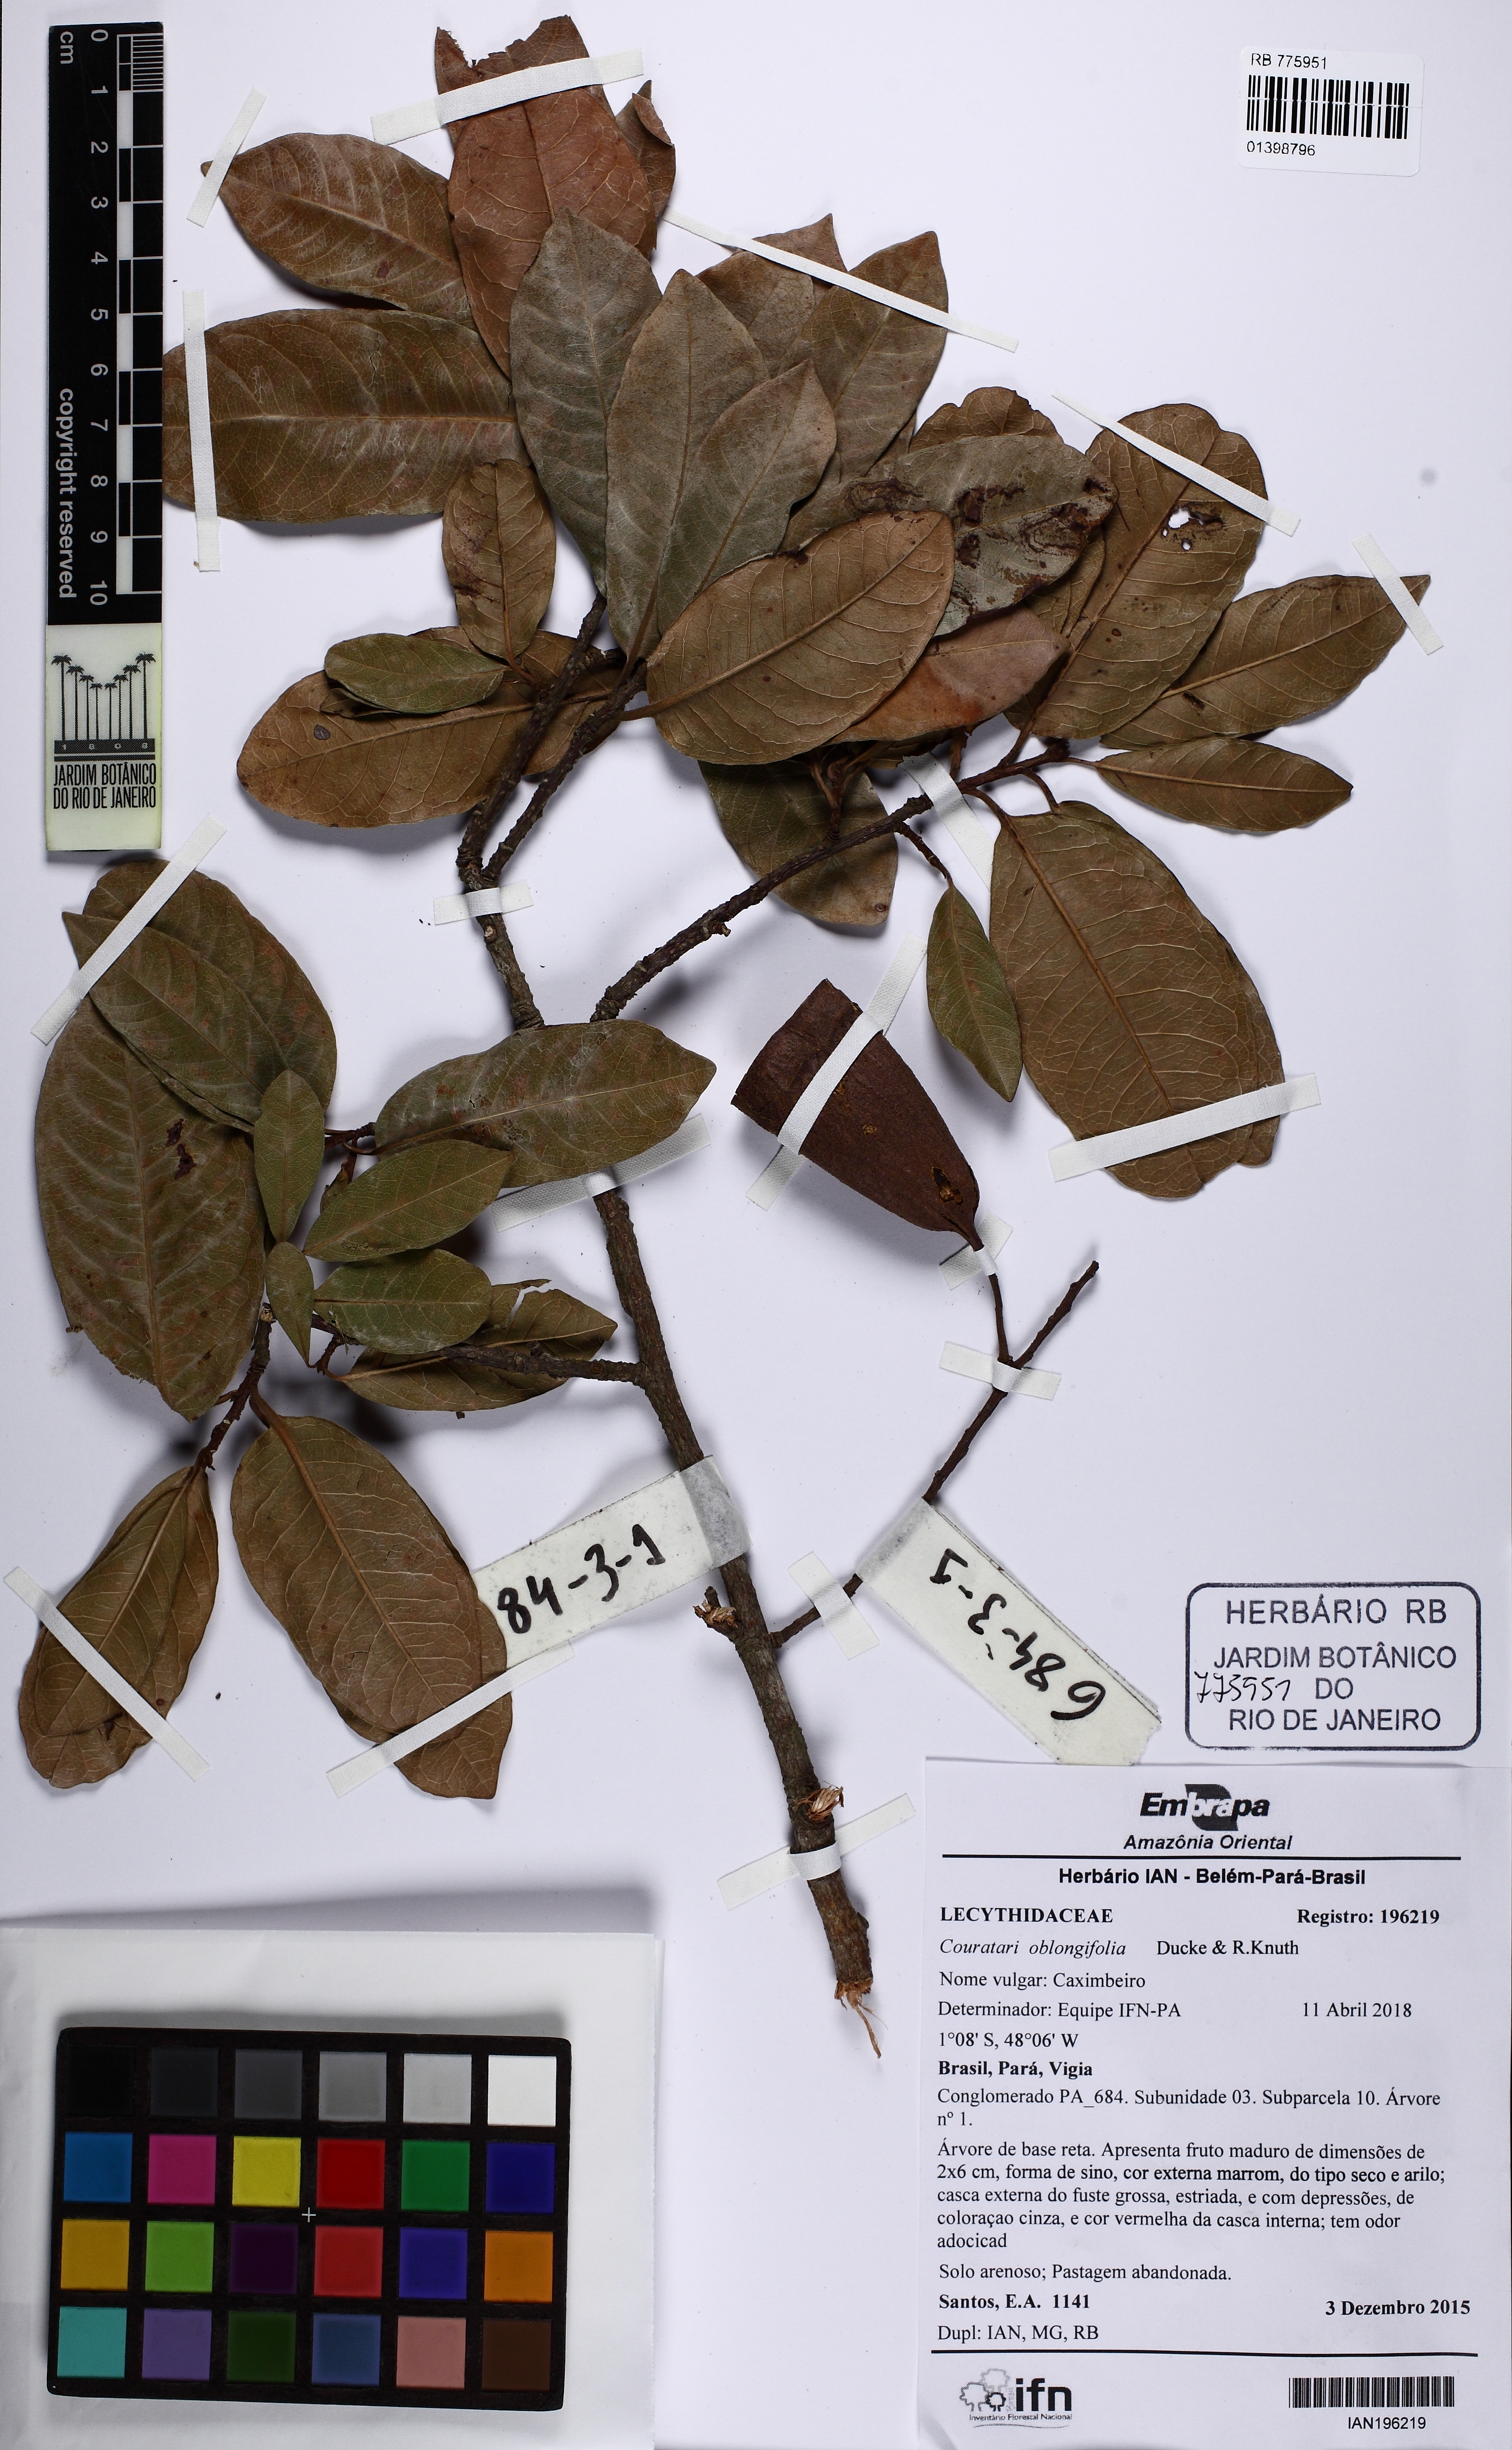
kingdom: Plantae
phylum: Tracheophyta
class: Magnoliopsida
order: Ericales
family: Lecythidaceae
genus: Couratari
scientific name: Couratari oblongifolia
